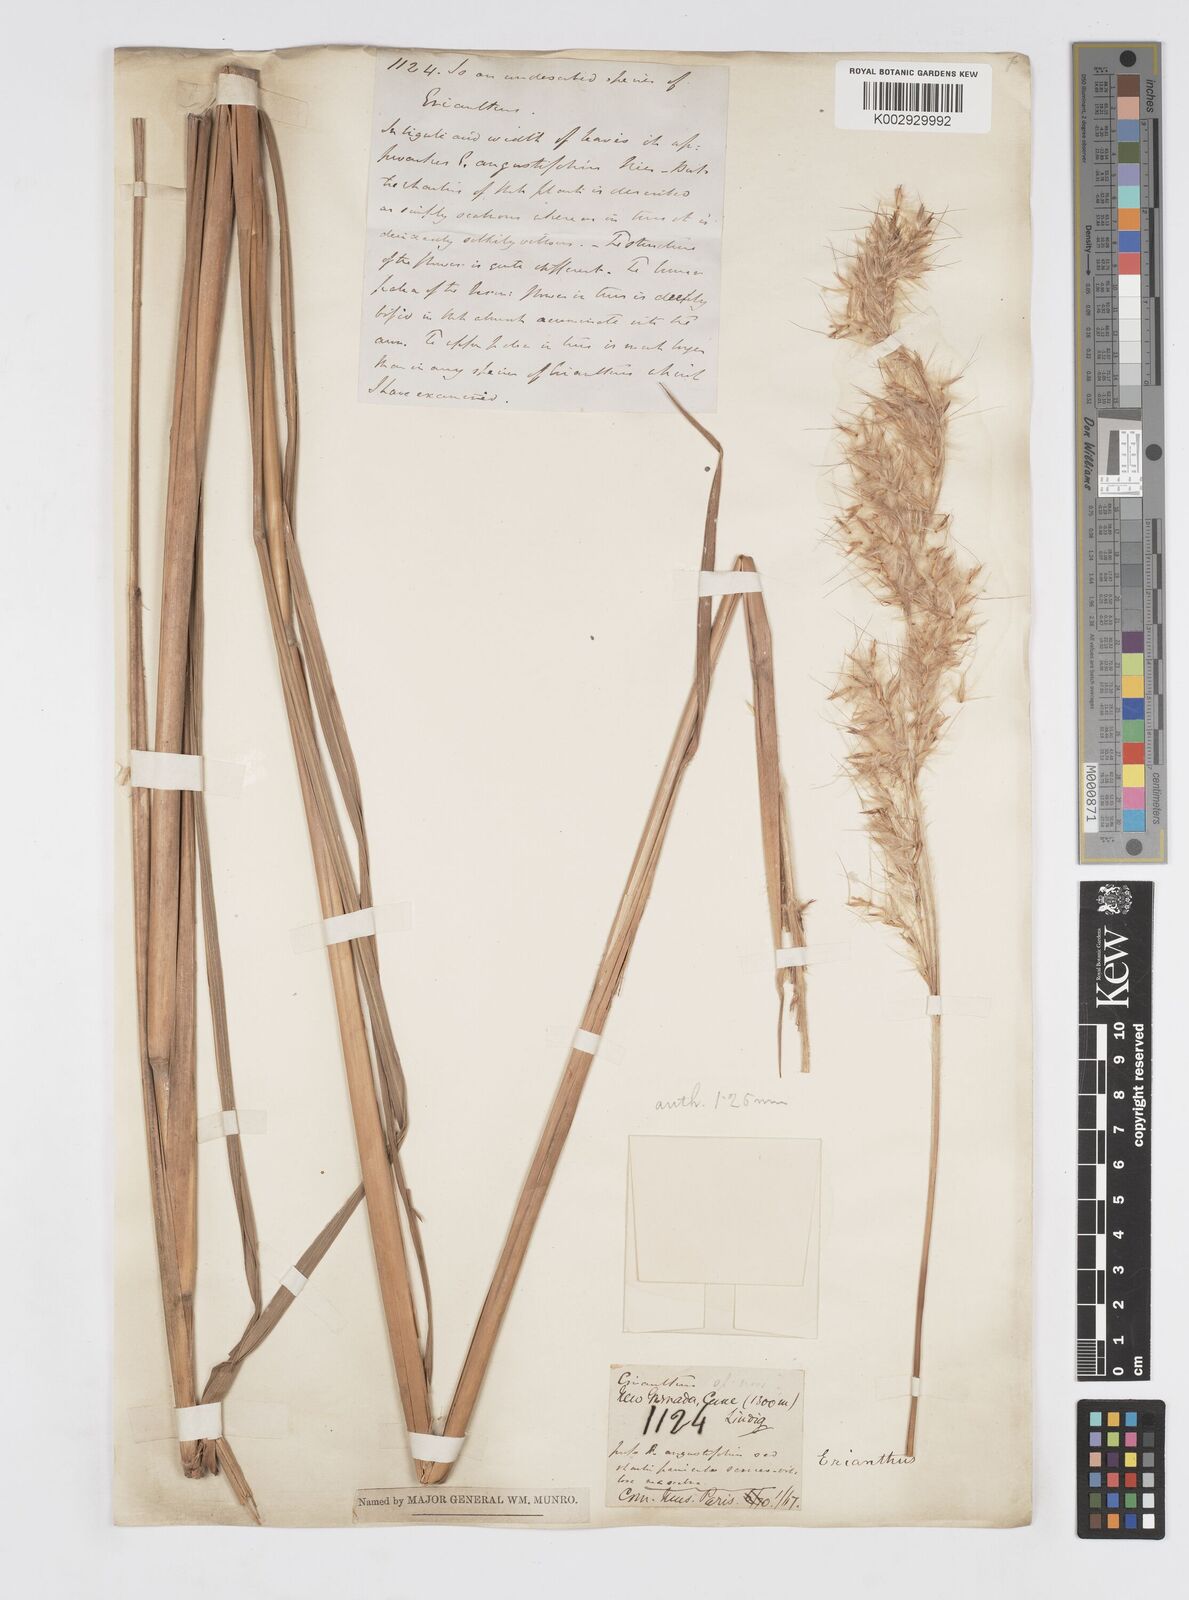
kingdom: Plantae
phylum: Tracheophyta
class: Liliopsida
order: Poales
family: Poaceae
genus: Saccharum
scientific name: Saccharum angustifolium
